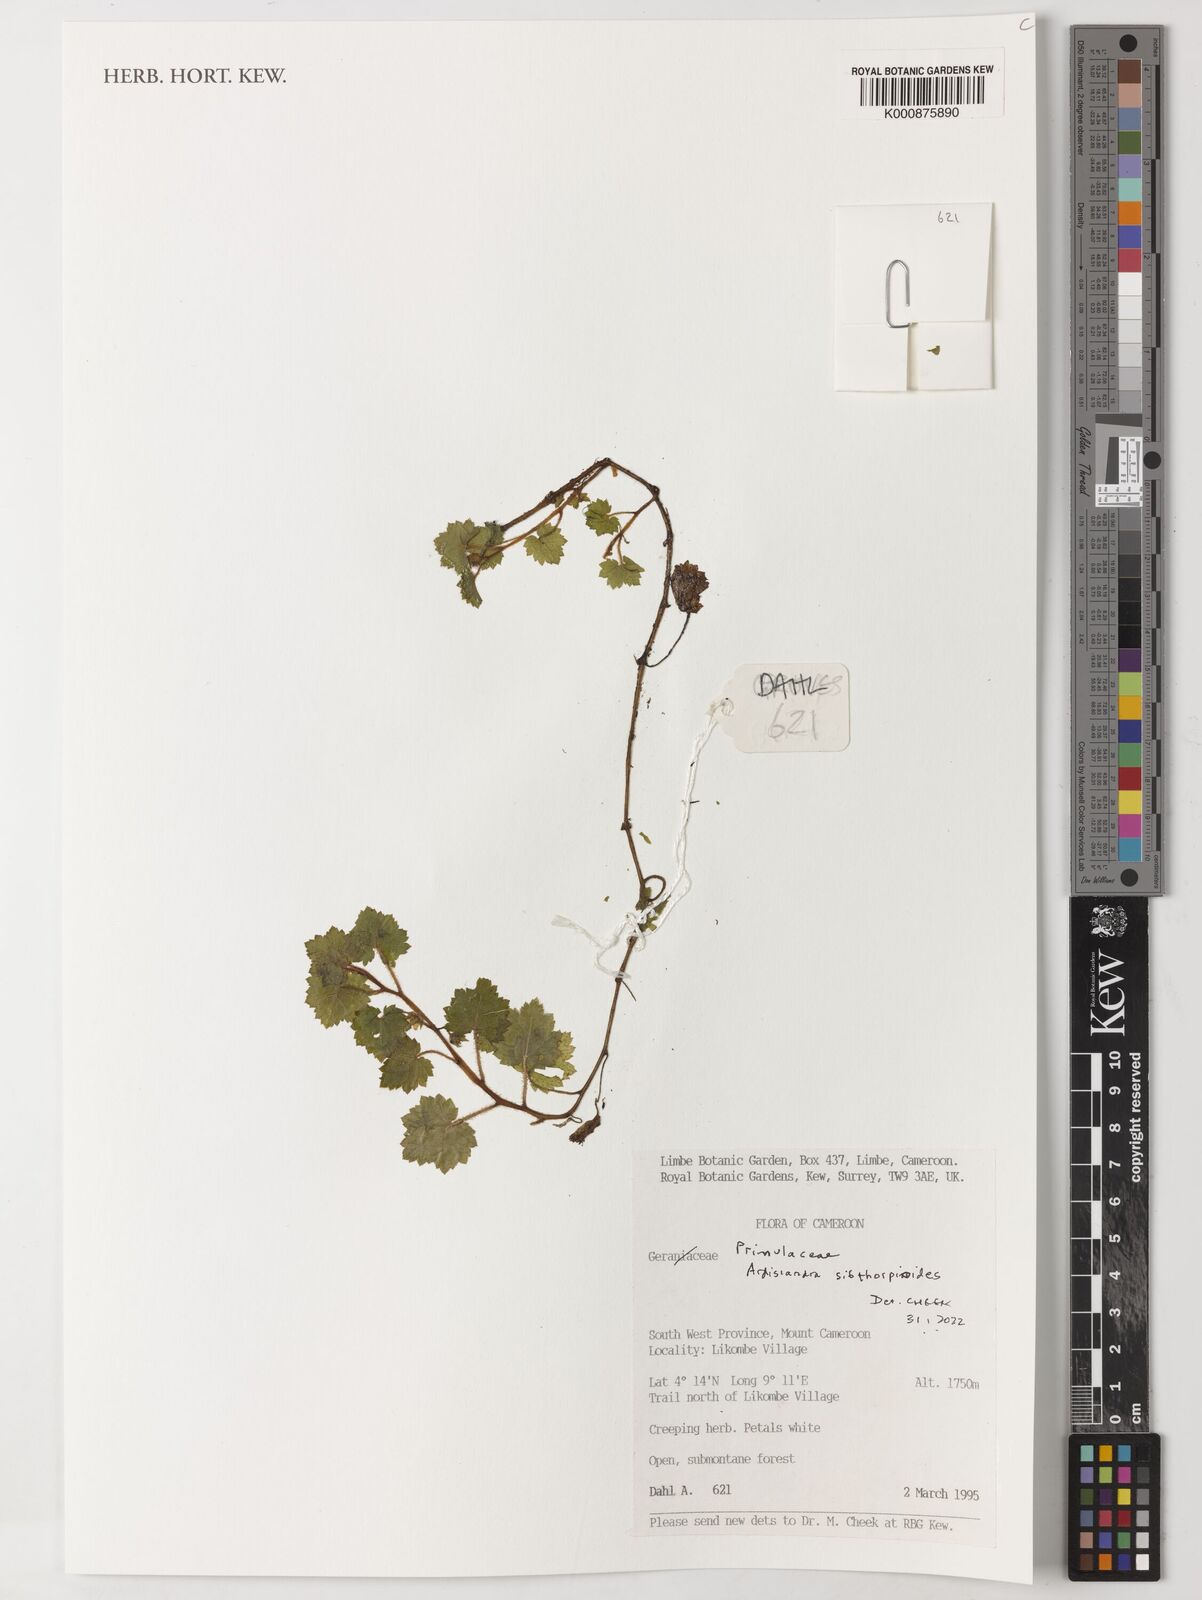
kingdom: Plantae
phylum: Tracheophyta
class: Magnoliopsida
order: Ericales
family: Primulaceae
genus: Ardisiandra
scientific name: Ardisiandra sibthorpioides
